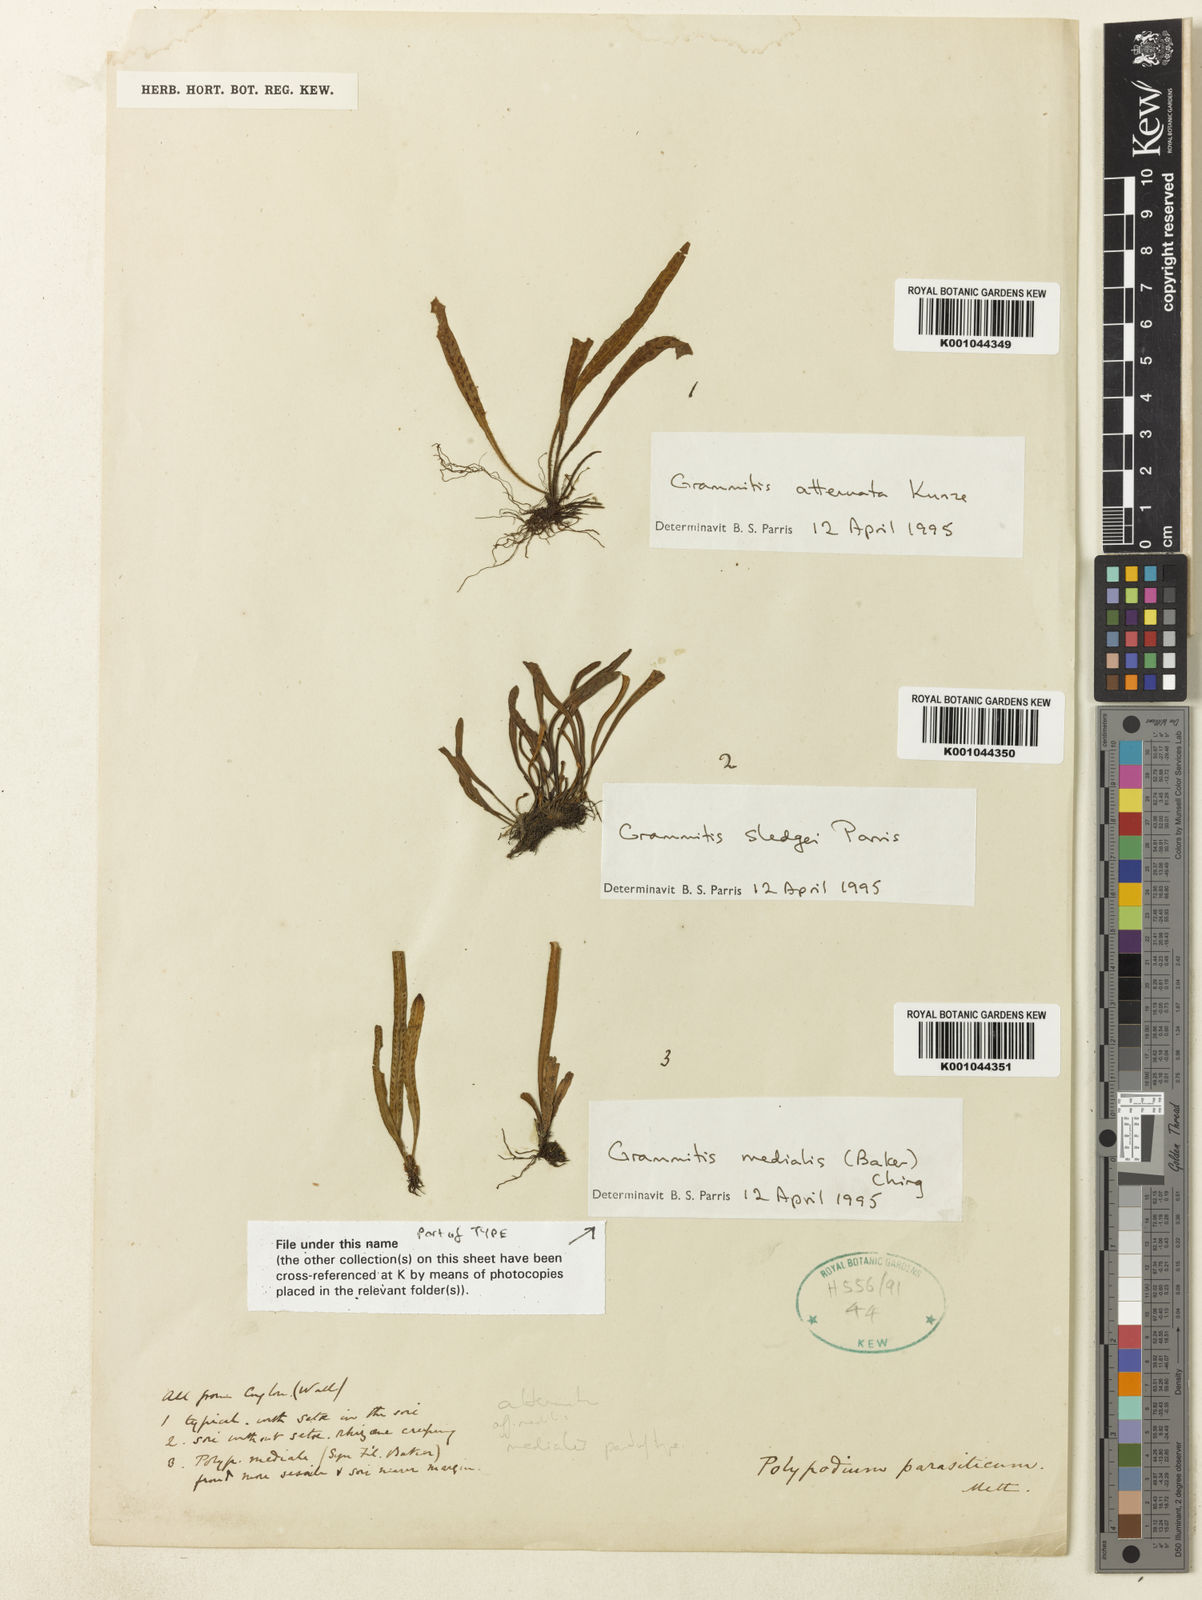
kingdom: Plantae
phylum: Tracheophyta
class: Polypodiopsida
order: Polypodiales
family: Polypodiaceae
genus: Oreogrammitis
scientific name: Oreogrammitis medialis
